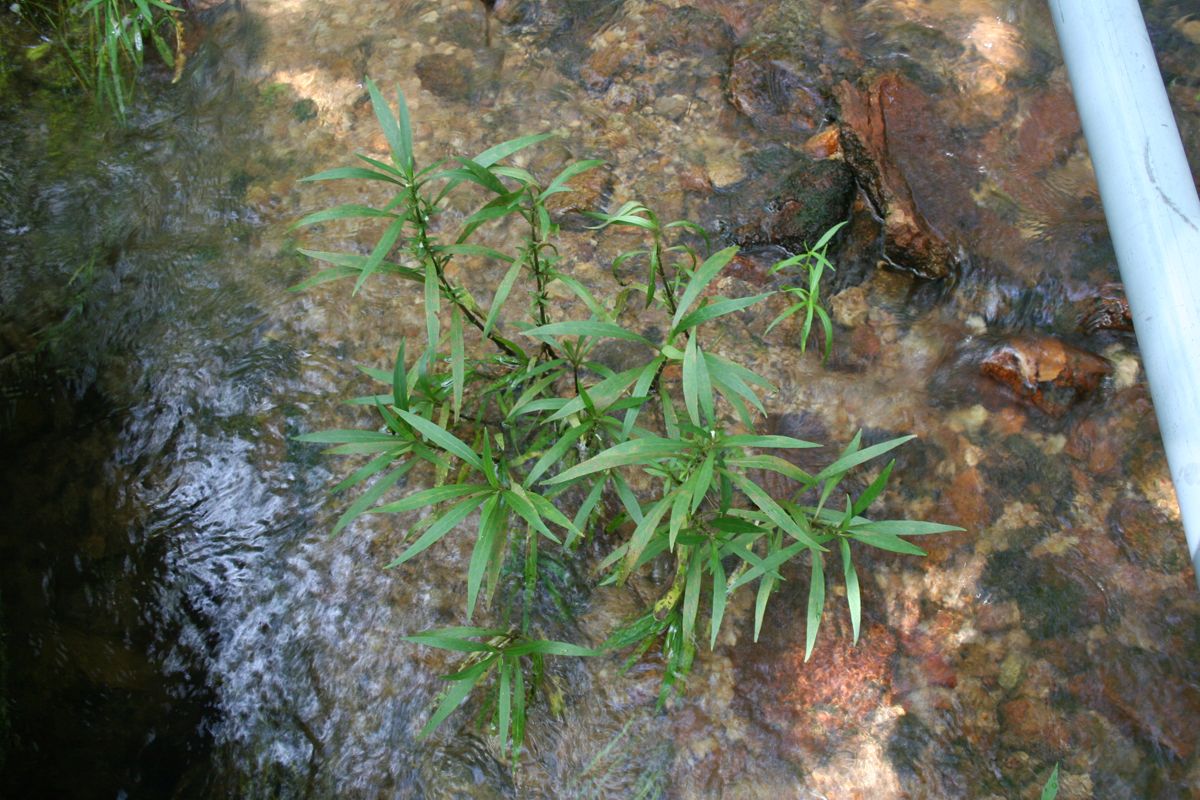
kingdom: Plantae
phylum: Tracheophyta
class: Magnoliopsida
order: Lamiales
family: Acanthaceae
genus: Hygrophila
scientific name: Hygrophila costata
